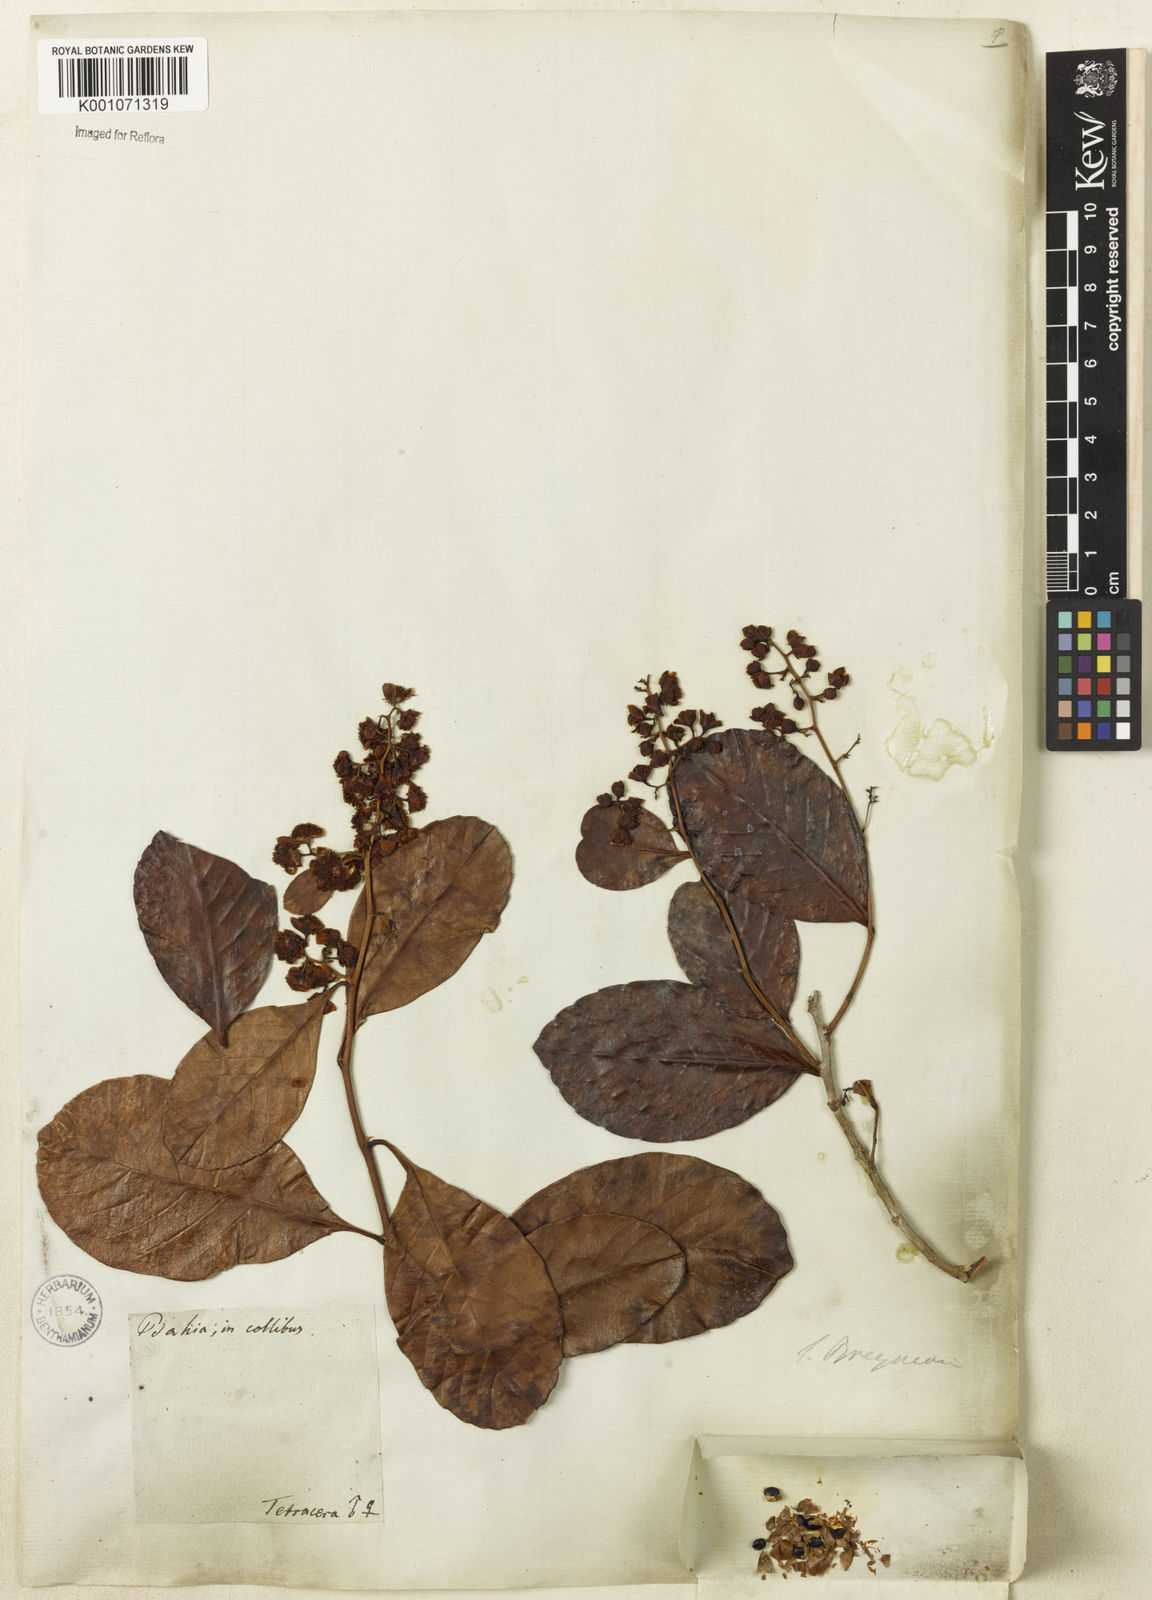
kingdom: Plantae
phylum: Tracheophyta
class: Magnoliopsida
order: Dilleniales
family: Dilleniaceae
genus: Tetracera
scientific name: Tetracera breyniana
